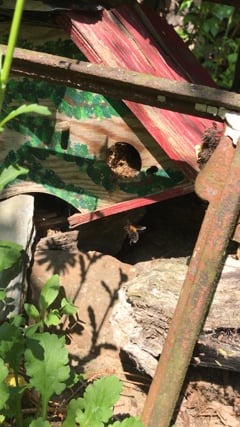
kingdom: Animalia
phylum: Arthropoda
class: Insecta
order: Hymenoptera
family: Apidae
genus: Bombus
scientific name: Bombus hypnorum
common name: New garden bumblebee
